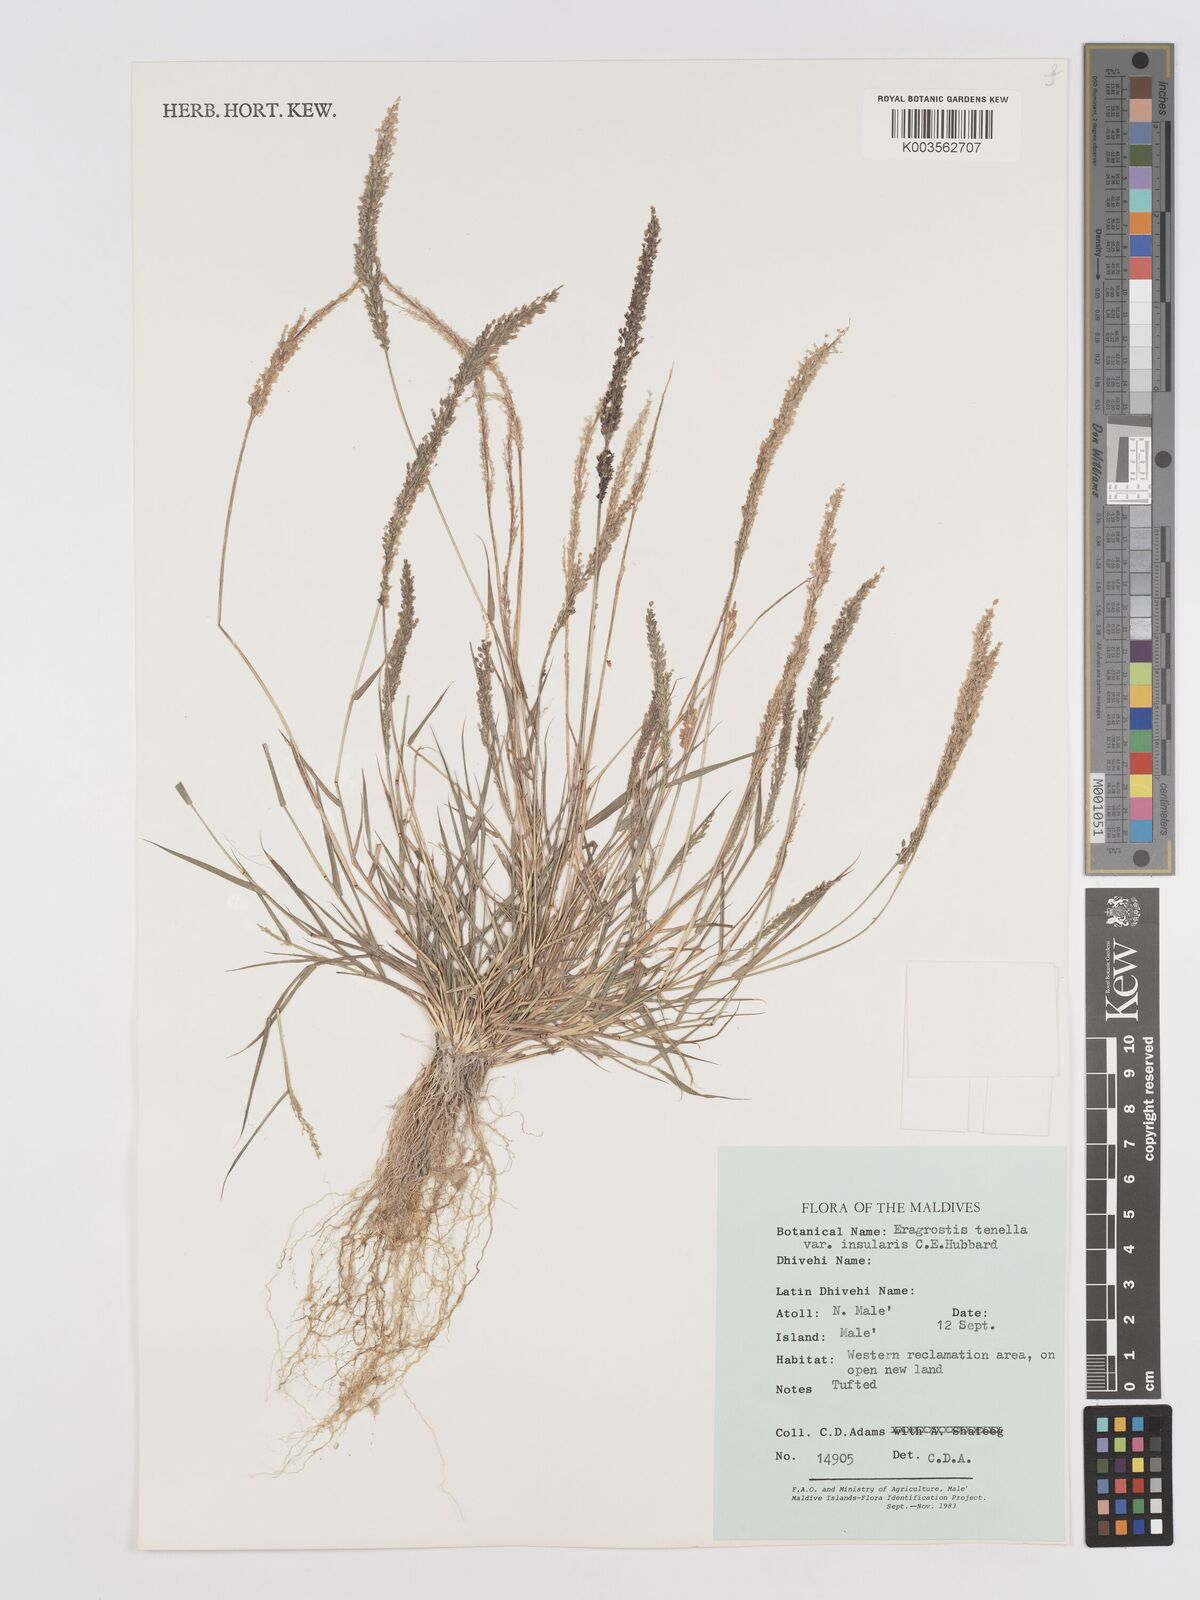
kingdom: Plantae
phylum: Tracheophyta
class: Liliopsida
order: Poales
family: Poaceae
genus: Eragrostis
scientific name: Eragrostis tenella
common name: Japanese lovegrass
